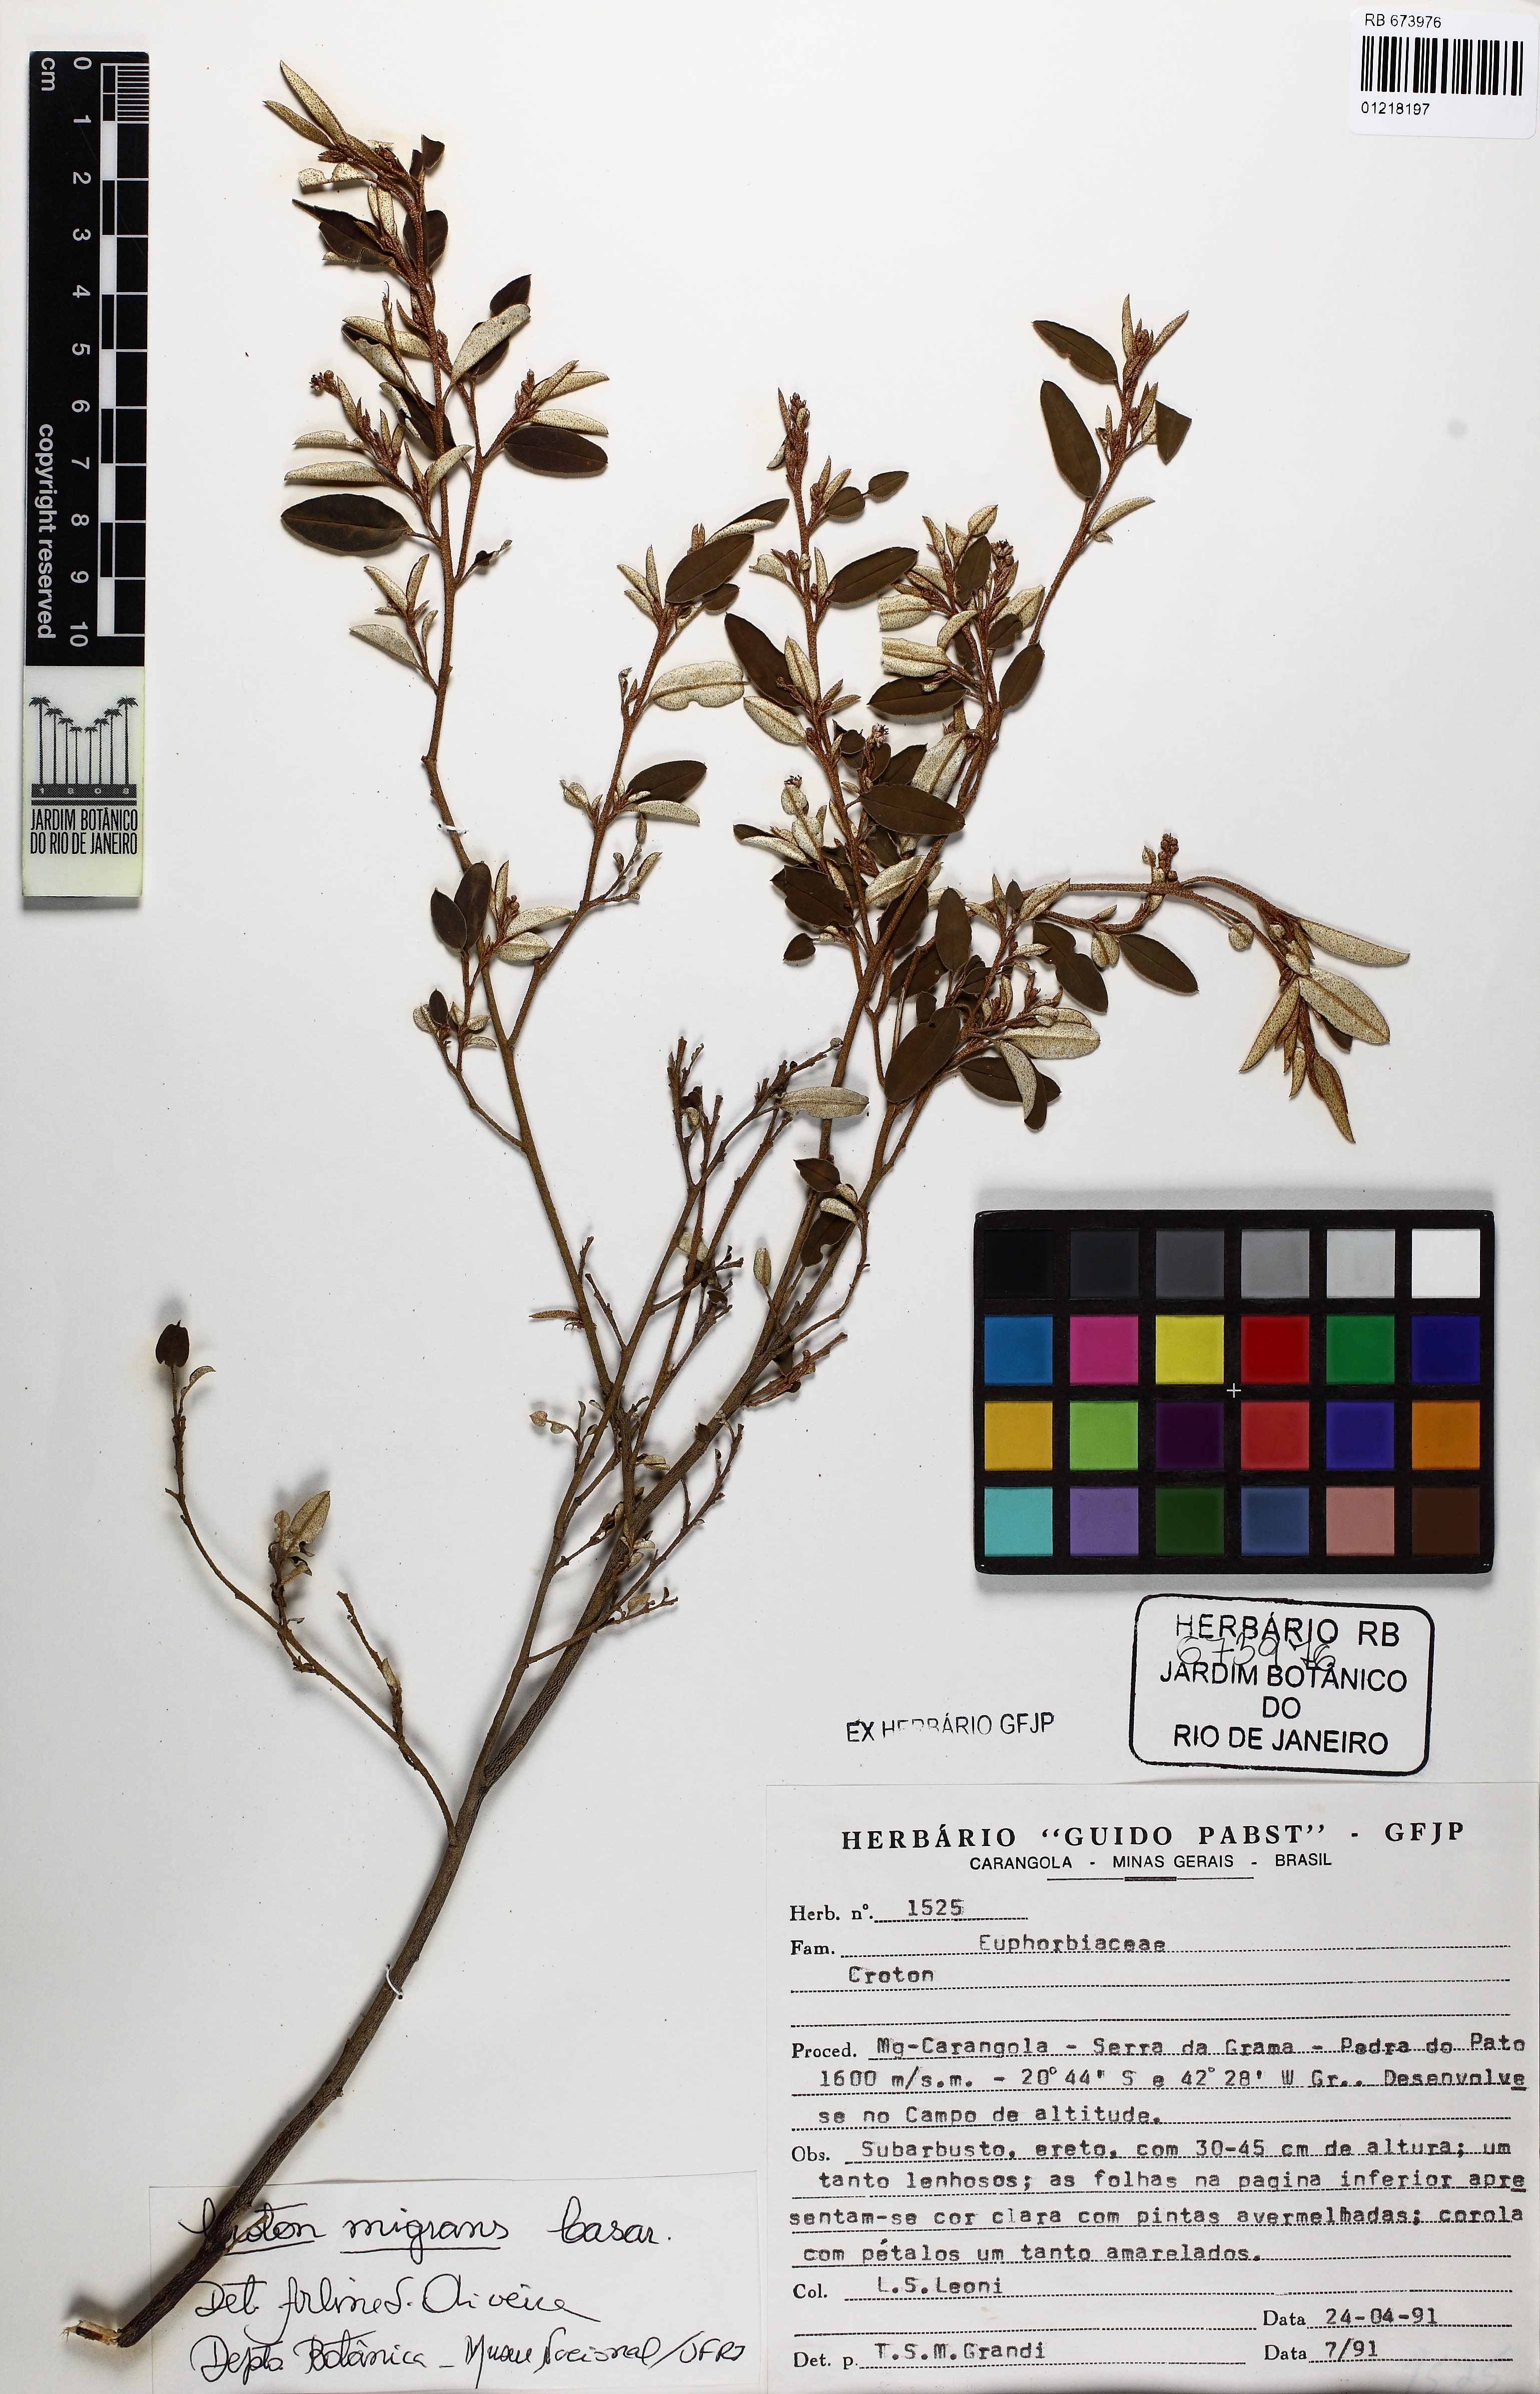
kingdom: Plantae
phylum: Tracheophyta
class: Magnoliopsida
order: Malpighiales
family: Euphorbiaceae
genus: Croton
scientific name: Croton splendidus
